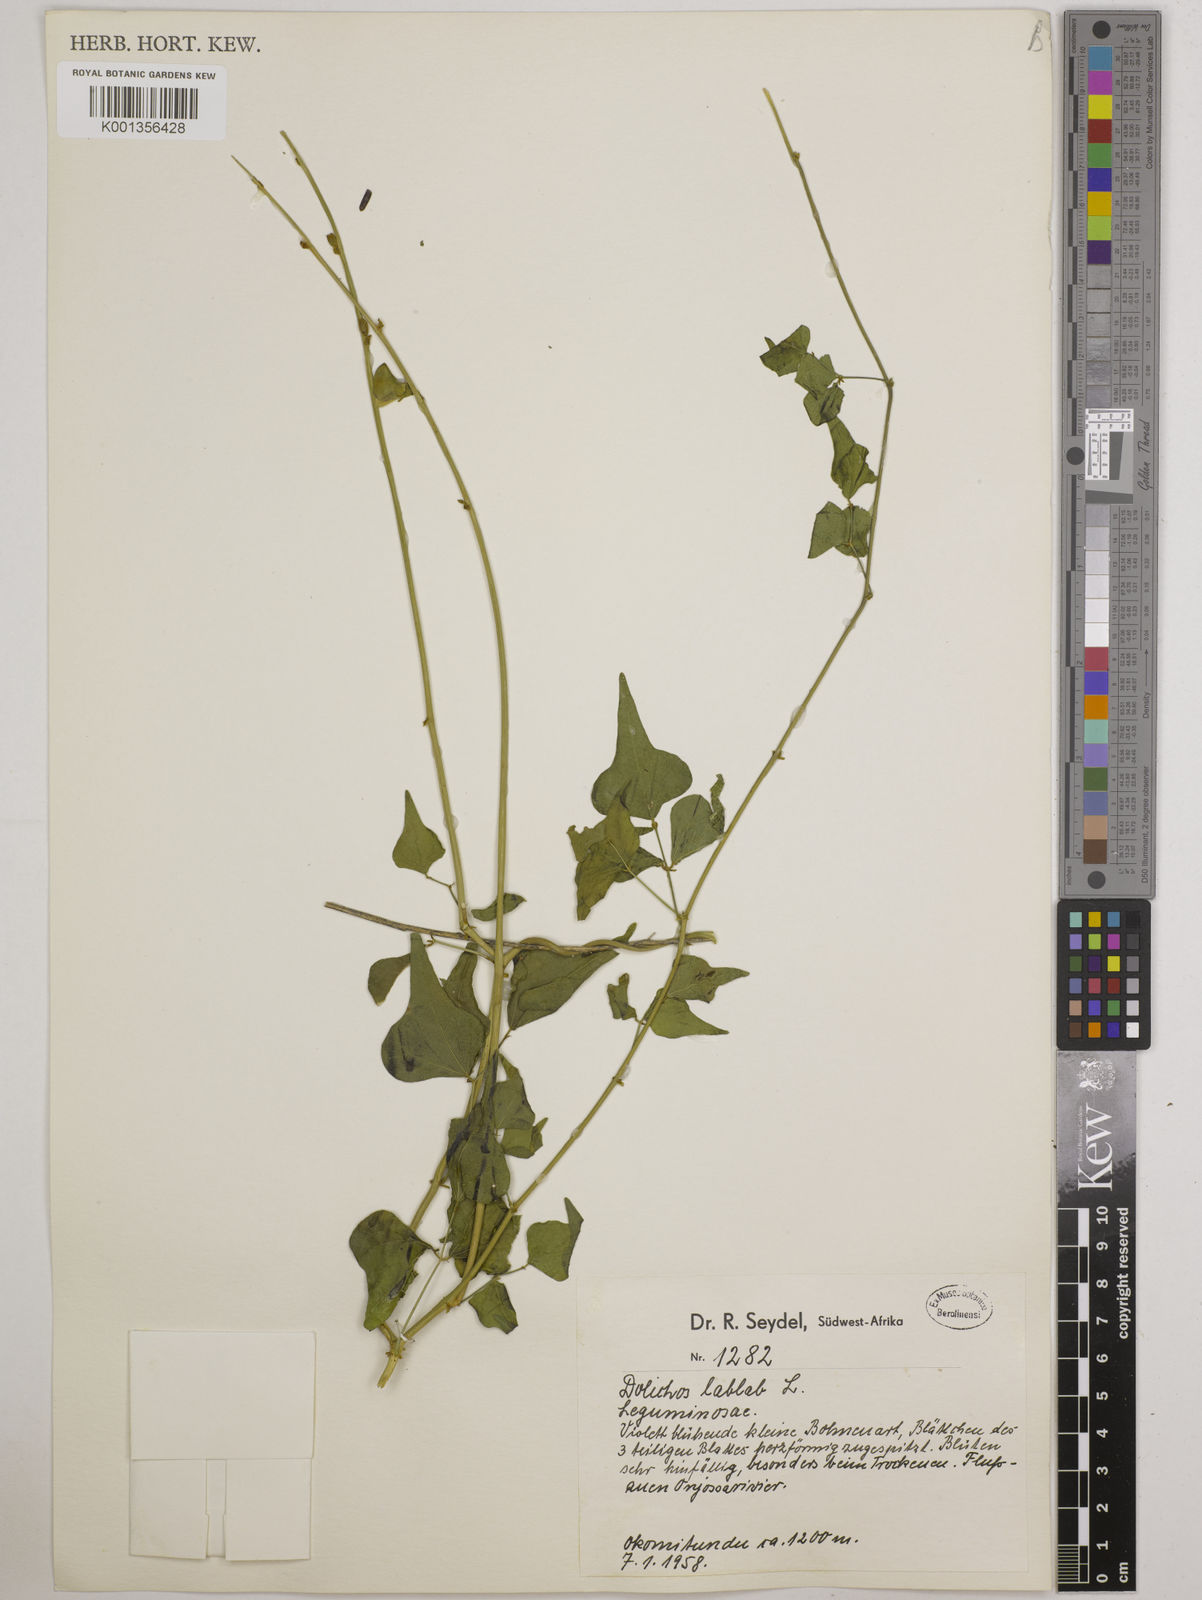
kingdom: Plantae
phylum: Tracheophyta
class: Magnoliopsida
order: Fabales
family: Fabaceae
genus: Lablab
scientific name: Lablab purpureus
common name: Lablab-bean
